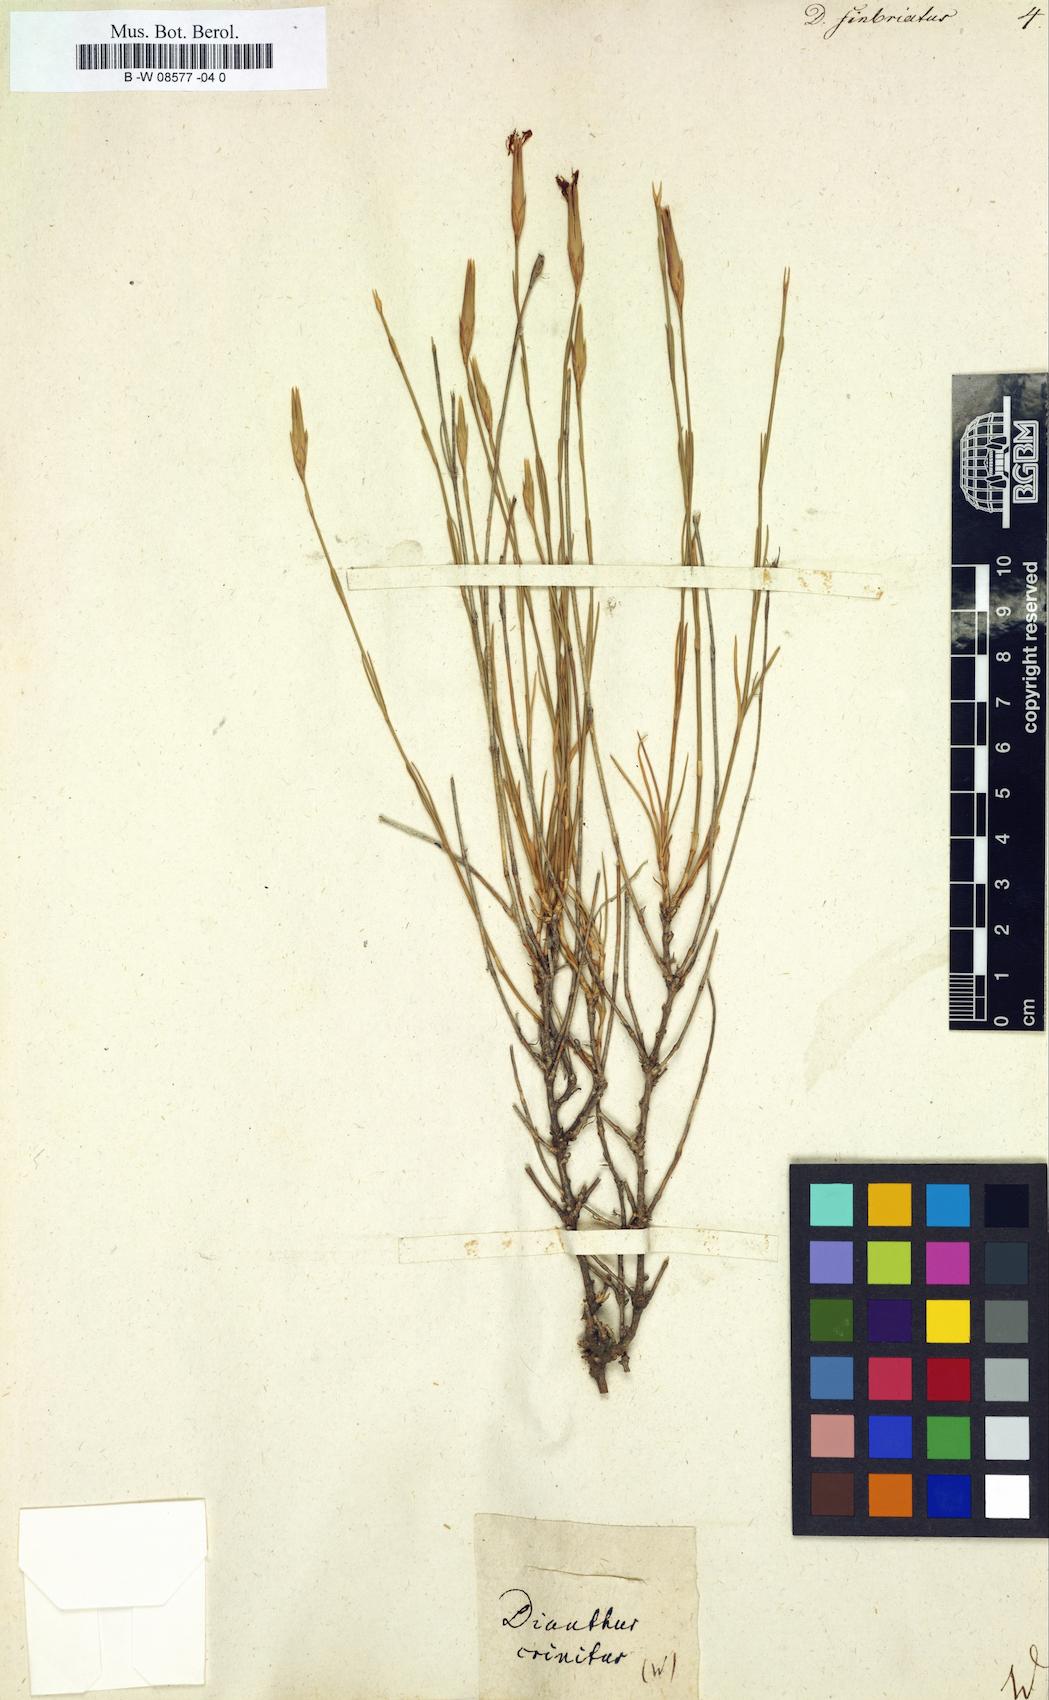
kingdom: Plantae
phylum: Tracheophyta
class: Magnoliopsida
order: Caryophyllales
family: Caryophyllaceae
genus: Dianthus
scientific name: Dianthus
